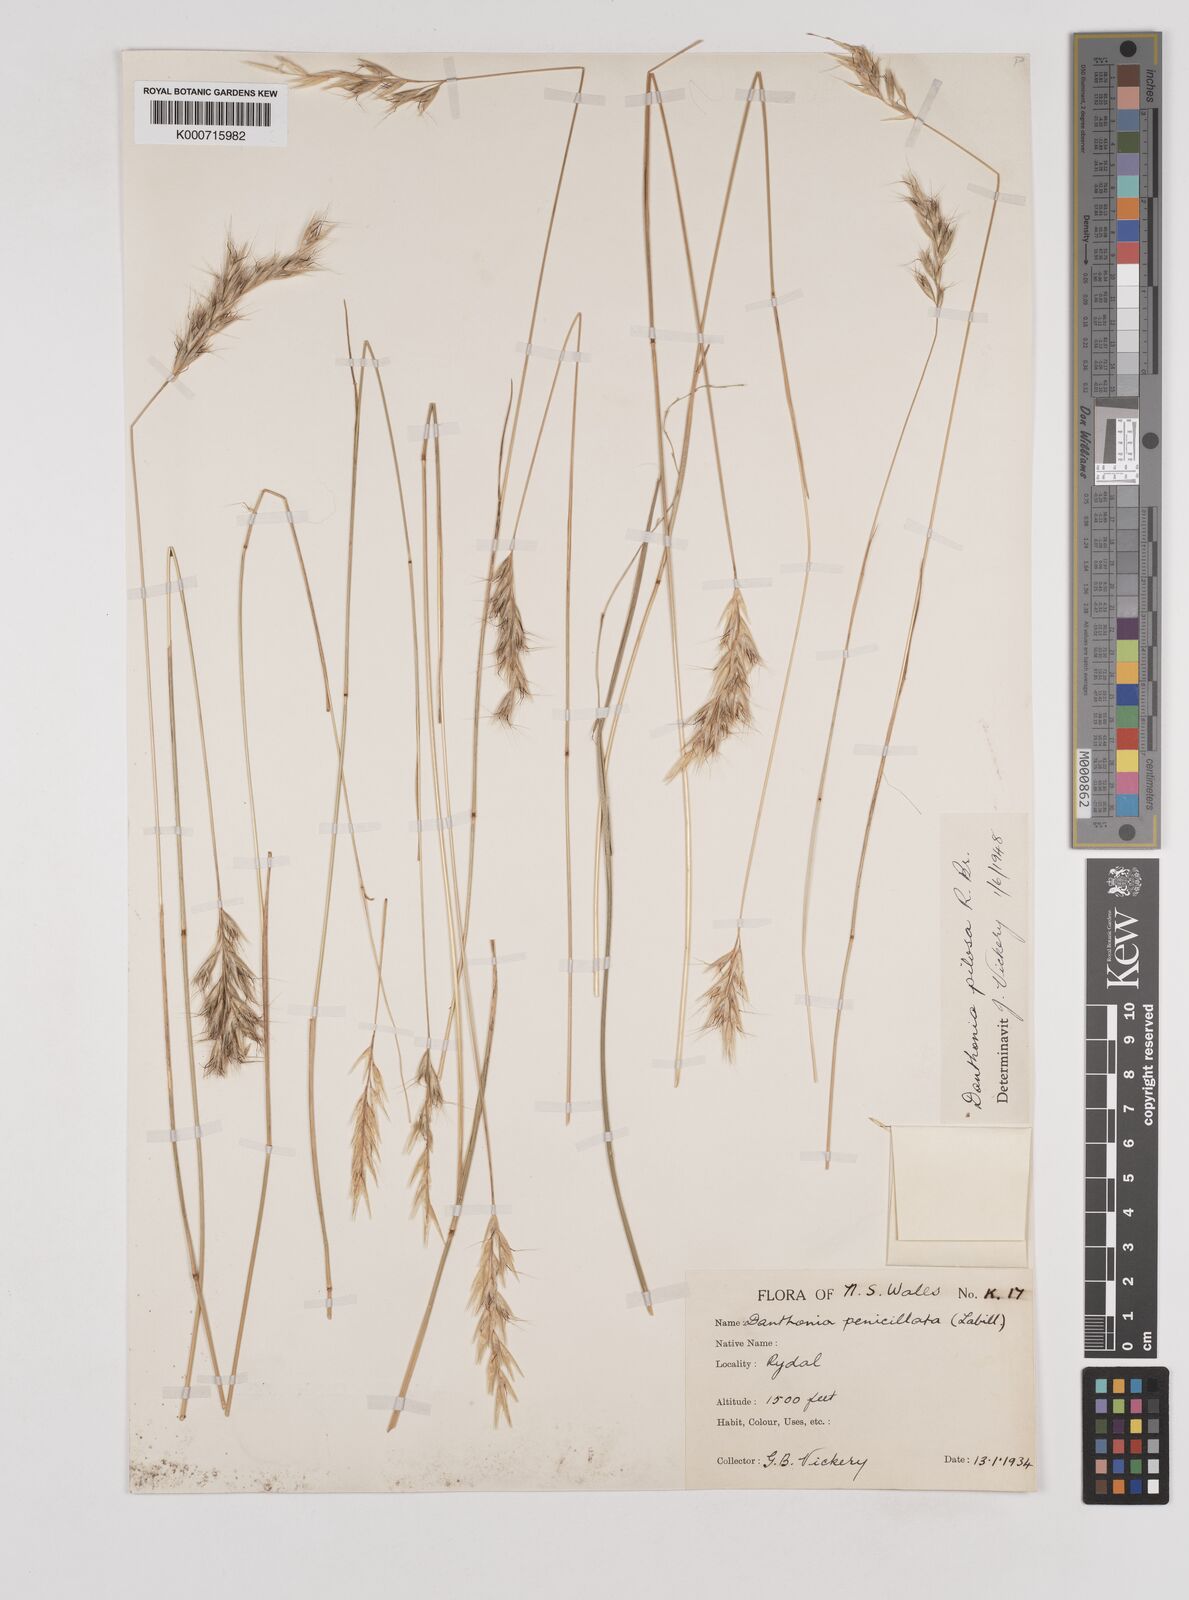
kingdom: Plantae
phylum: Tracheophyta
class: Liliopsida
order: Poales
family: Poaceae
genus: Rytidosperma
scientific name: Rytidosperma pilosum
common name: Hairy wallaby grass
